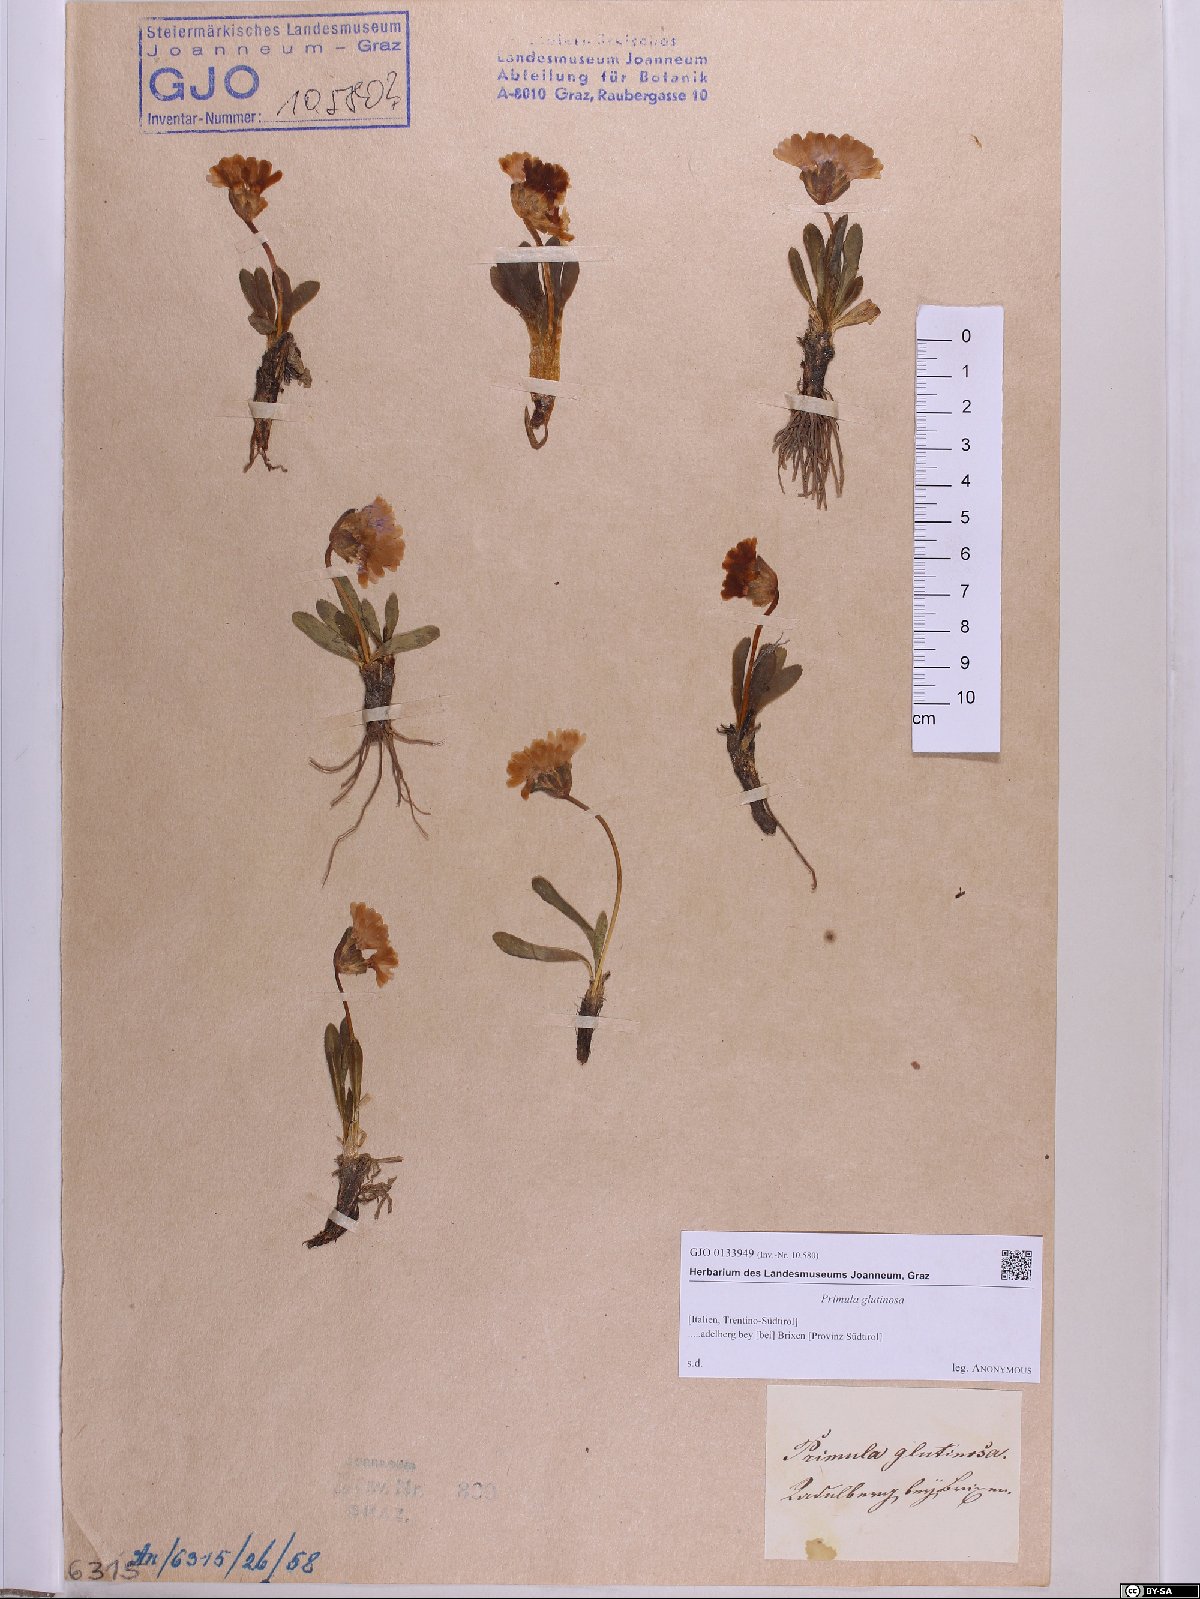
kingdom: Plantae
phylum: Tracheophyta
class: Magnoliopsida
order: Ericales
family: Primulaceae
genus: Primula
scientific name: Primula glutinosa
